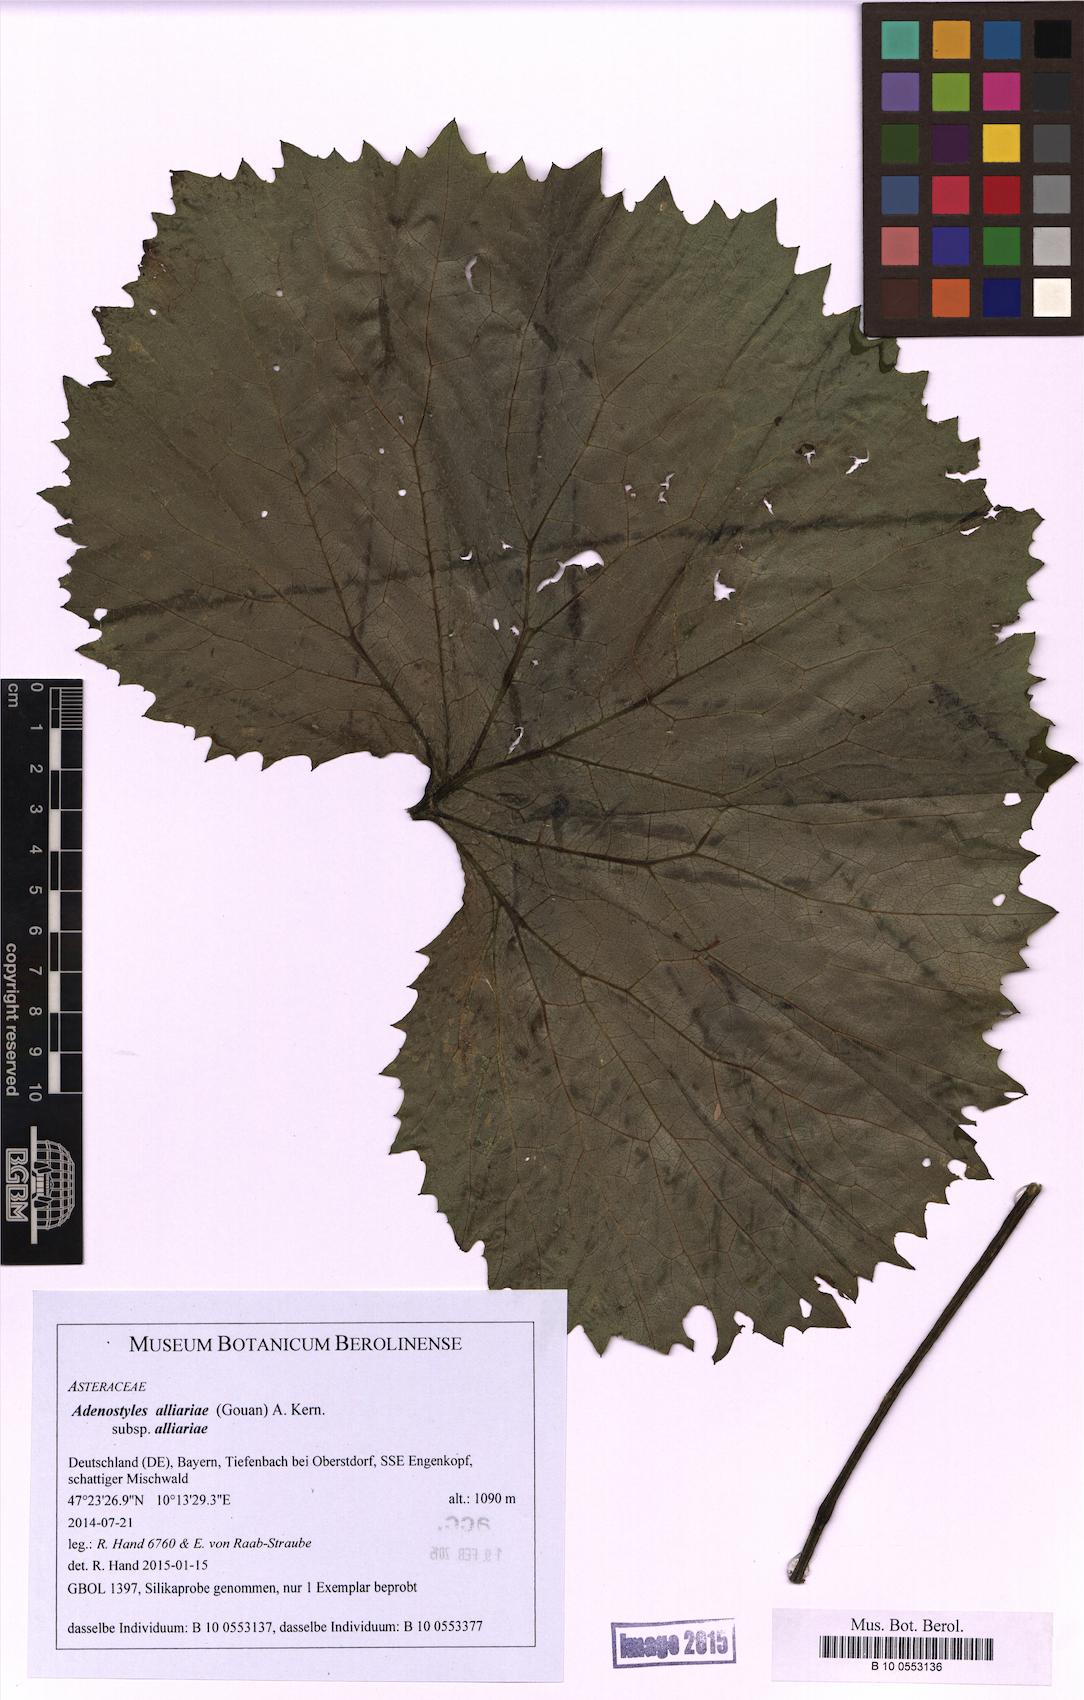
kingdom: Plantae
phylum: Tracheophyta
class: Magnoliopsida
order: Asterales
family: Asteraceae
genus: Adenostyles
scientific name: Adenostyles alliariae
